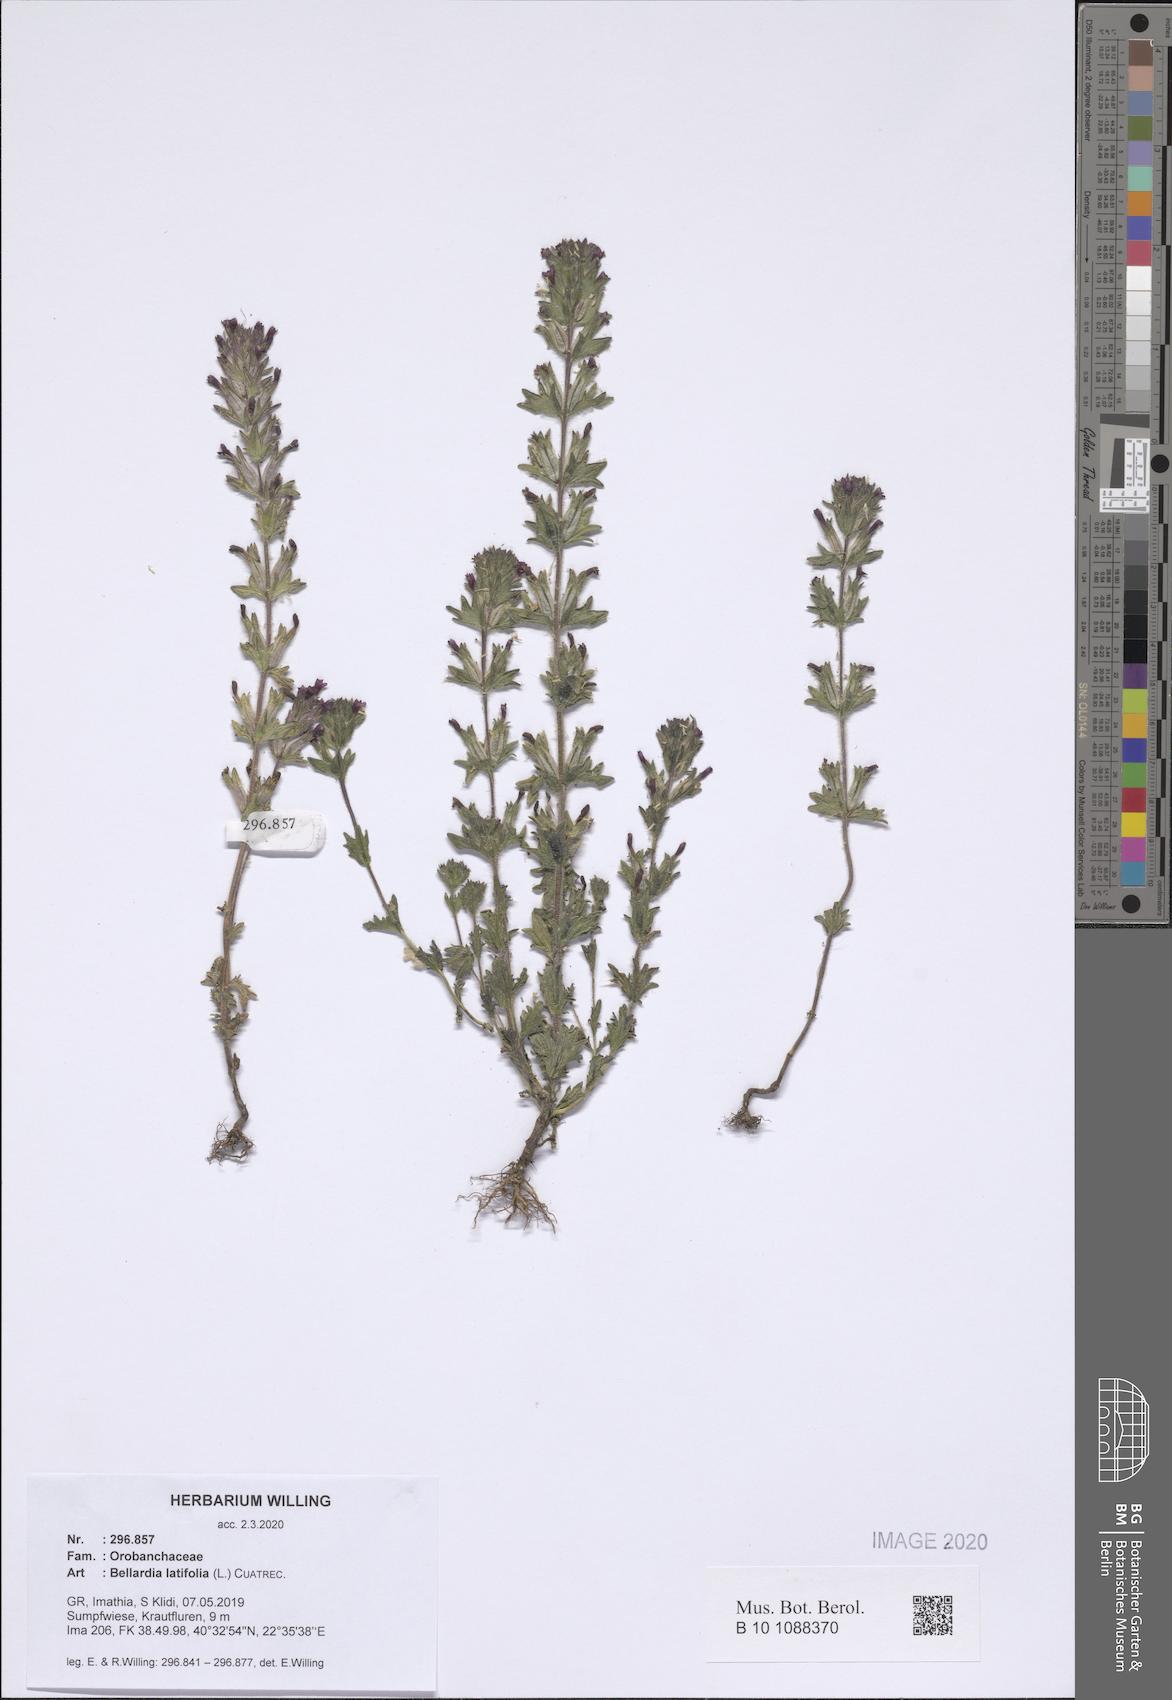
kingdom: Plantae
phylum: Tracheophyta
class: Magnoliopsida
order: Lamiales
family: Orobanchaceae
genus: Parentucellia
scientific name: Parentucellia latifolia
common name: Broadleaf glandweed
